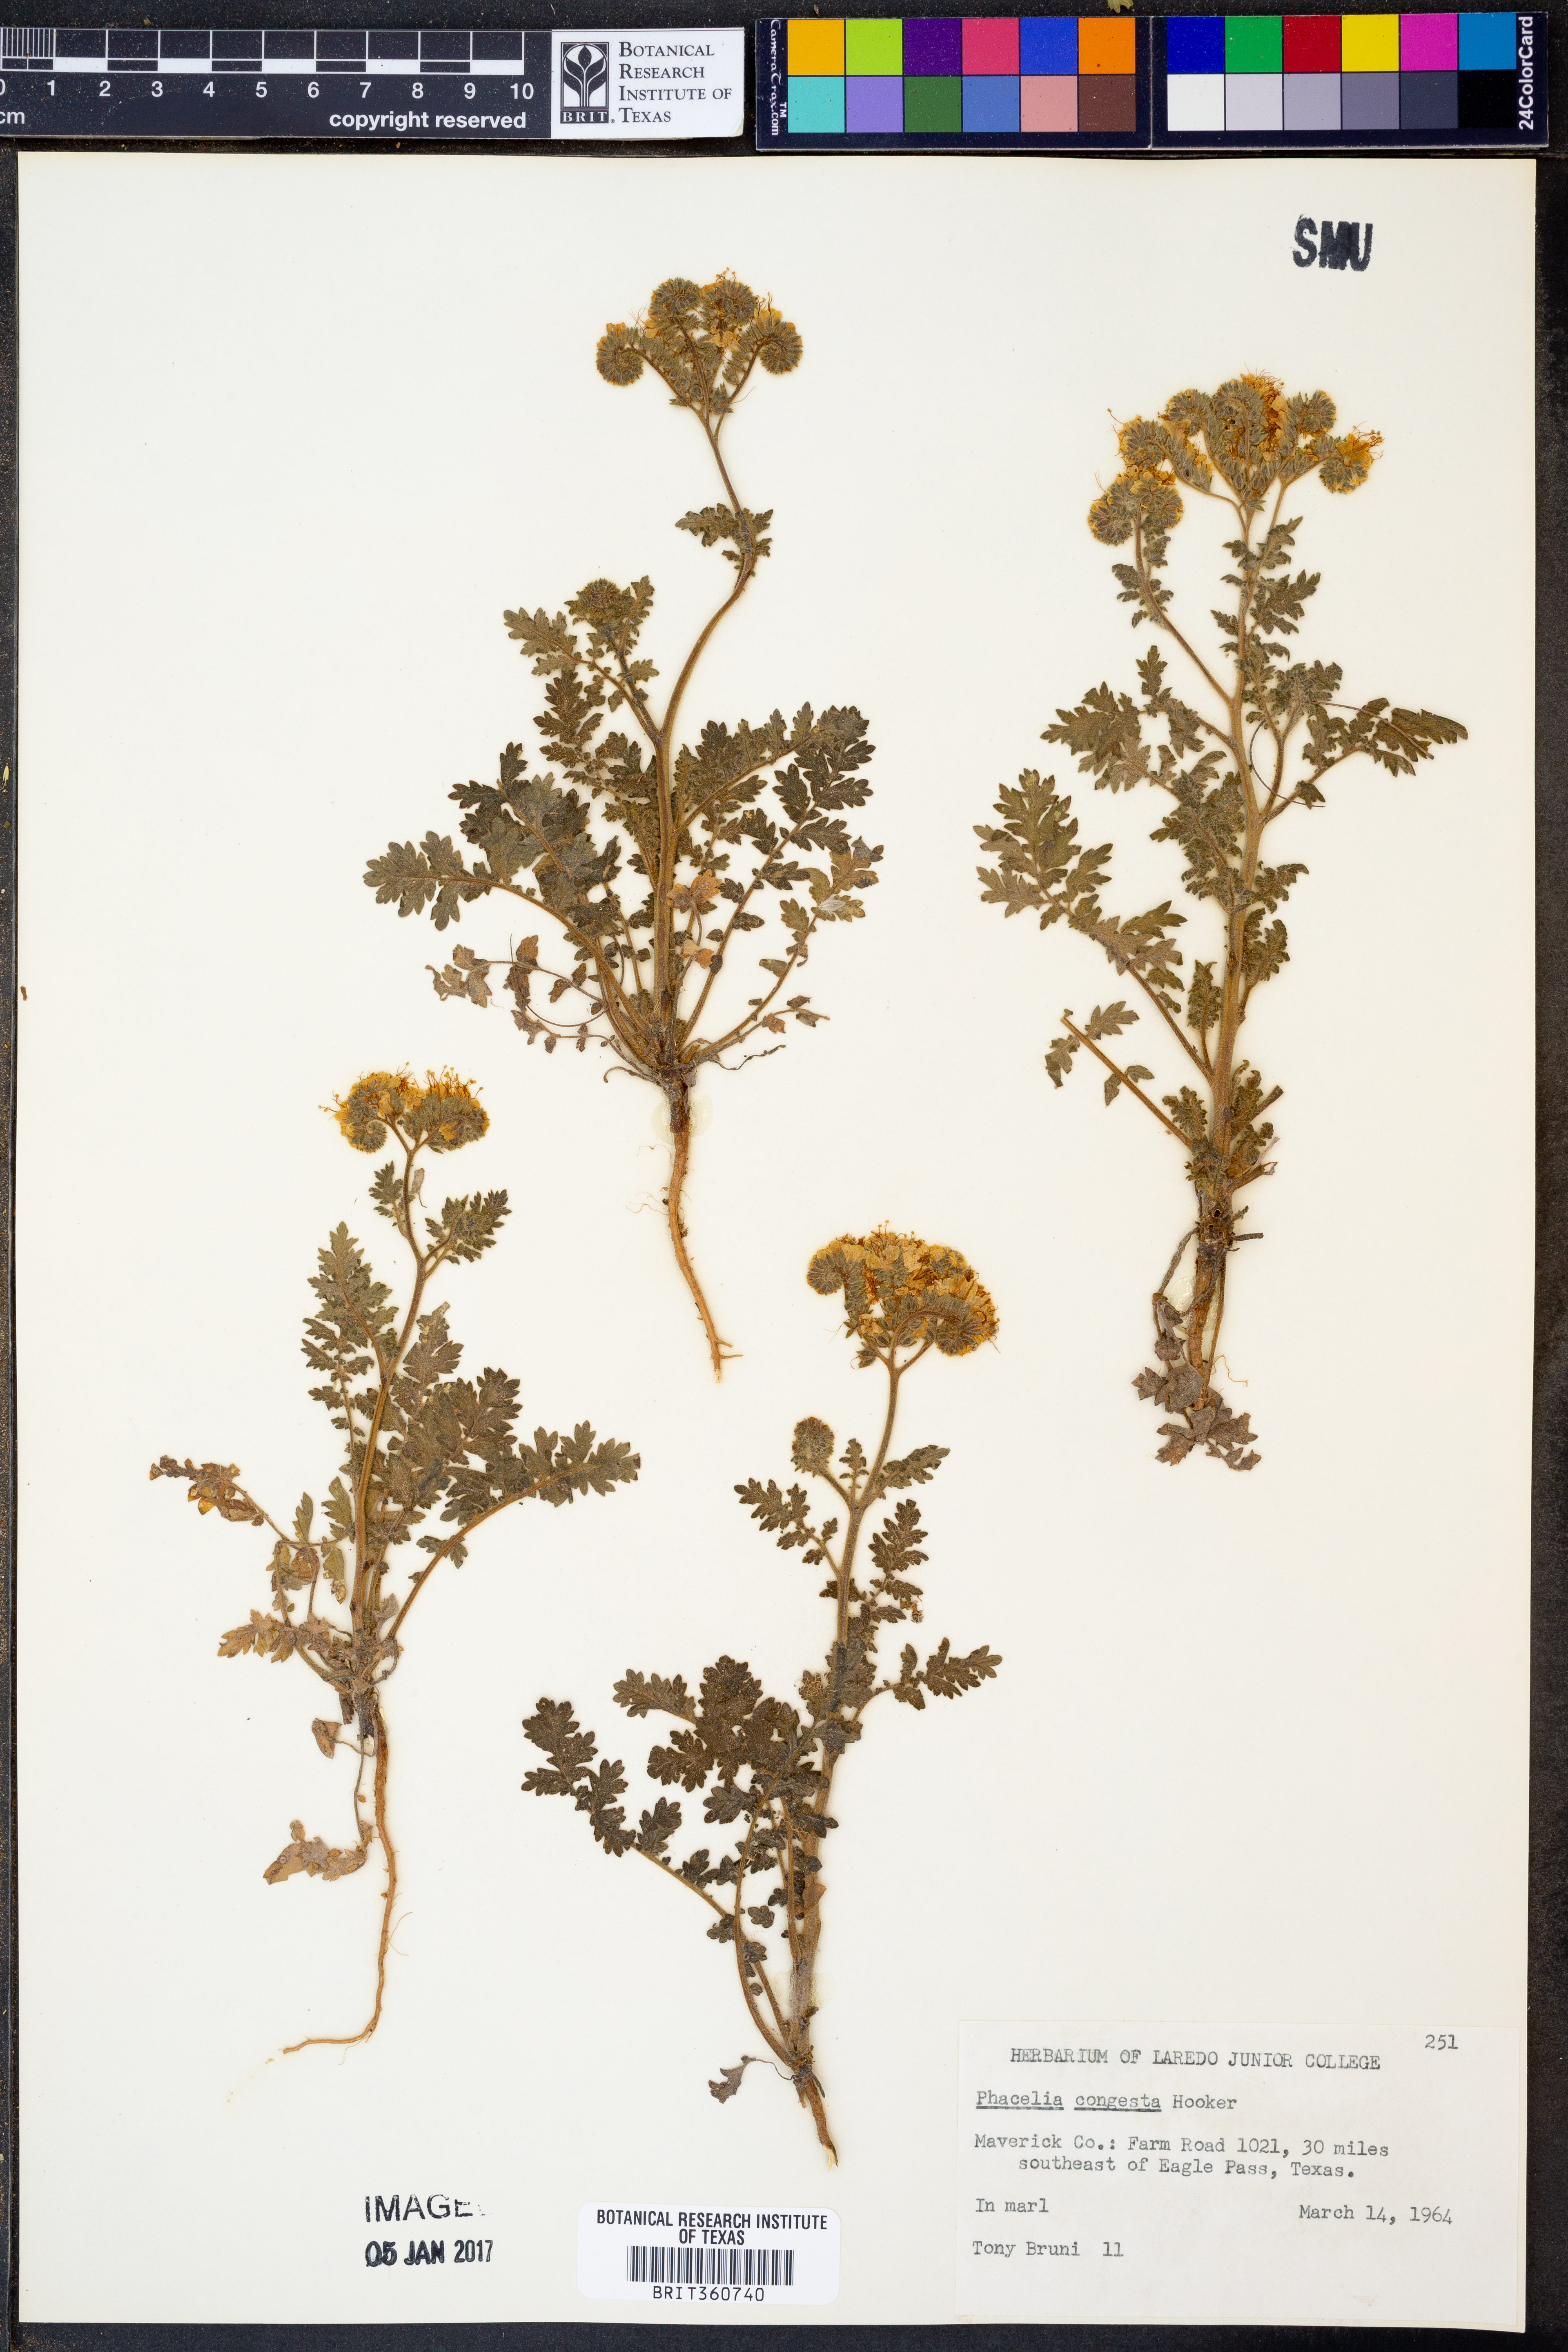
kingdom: Plantae
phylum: Tracheophyta
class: Magnoliopsida
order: Boraginales
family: Hydrophyllaceae
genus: Phacelia
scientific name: Phacelia congesta
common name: Blue curls
